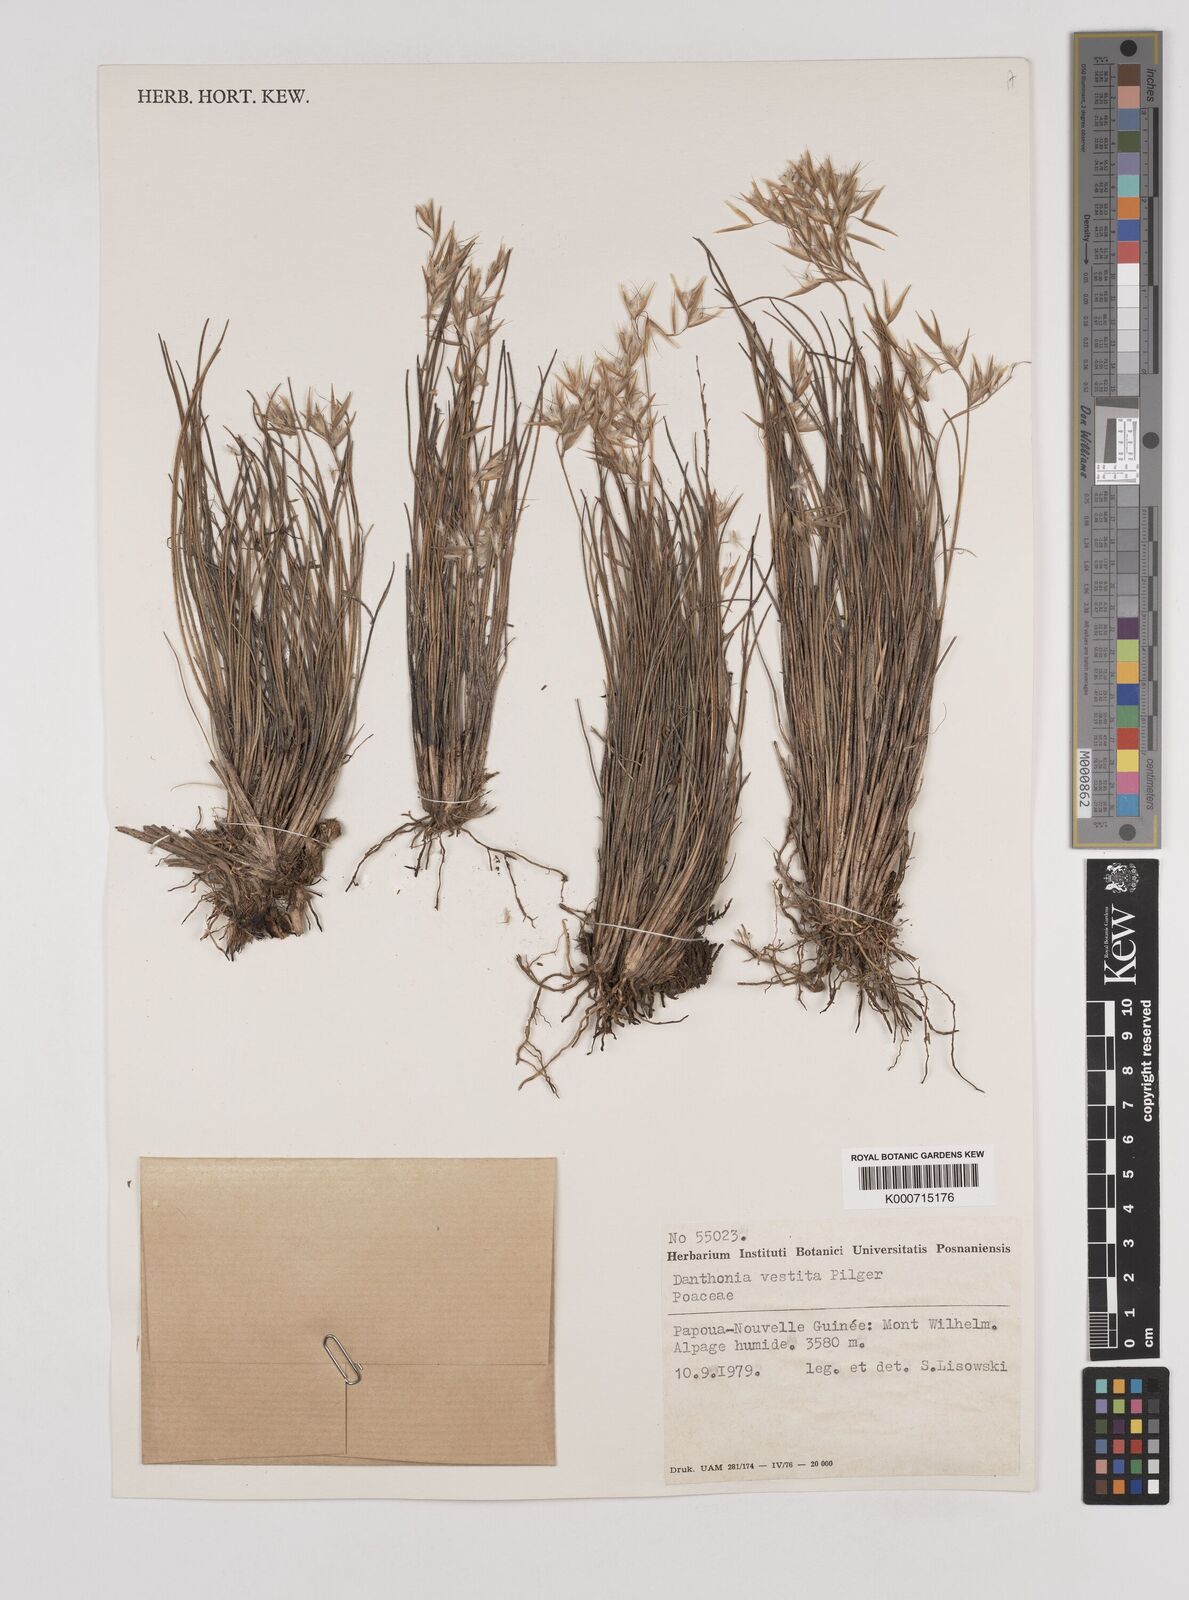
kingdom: Plantae
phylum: Tracheophyta
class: Liliopsida
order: Poales
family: Poaceae
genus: Rytidosperma
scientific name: Rytidosperma vestitum
